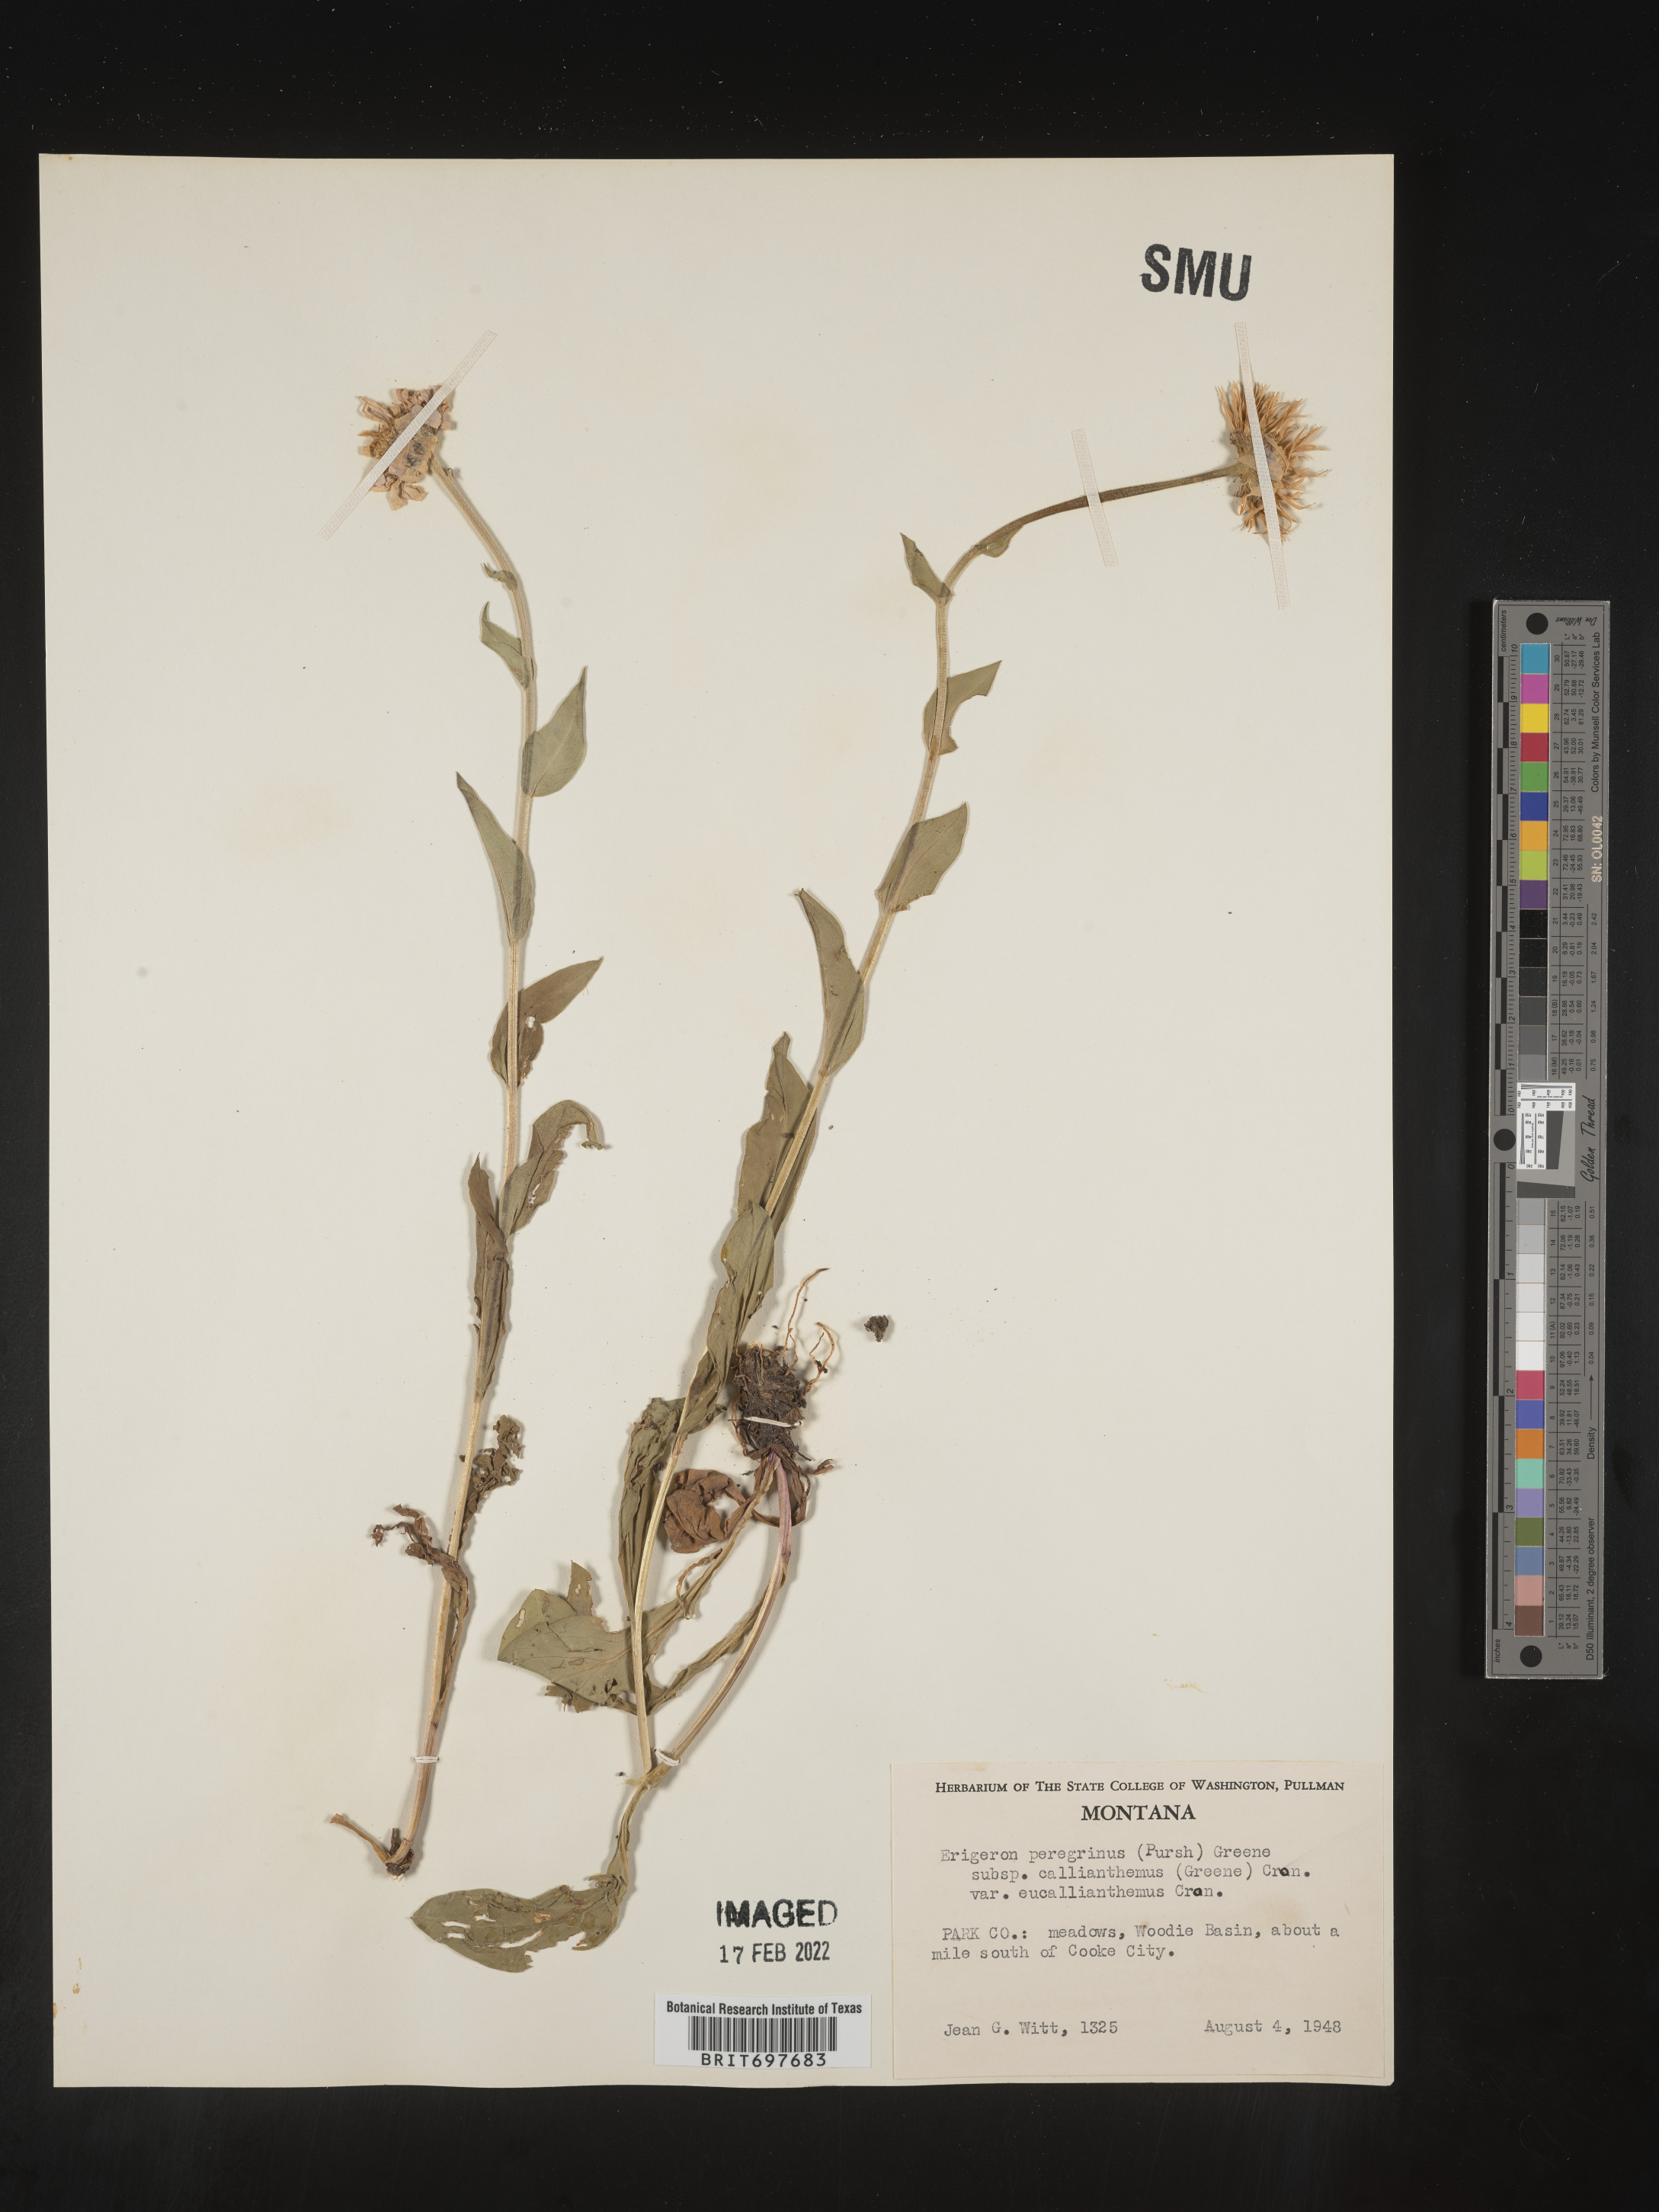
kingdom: Plantae
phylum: Tracheophyta
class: Magnoliopsida
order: Asterales
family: Asteraceae
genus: Erigeron
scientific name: Erigeron glacialis
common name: Subalpine fleabane
